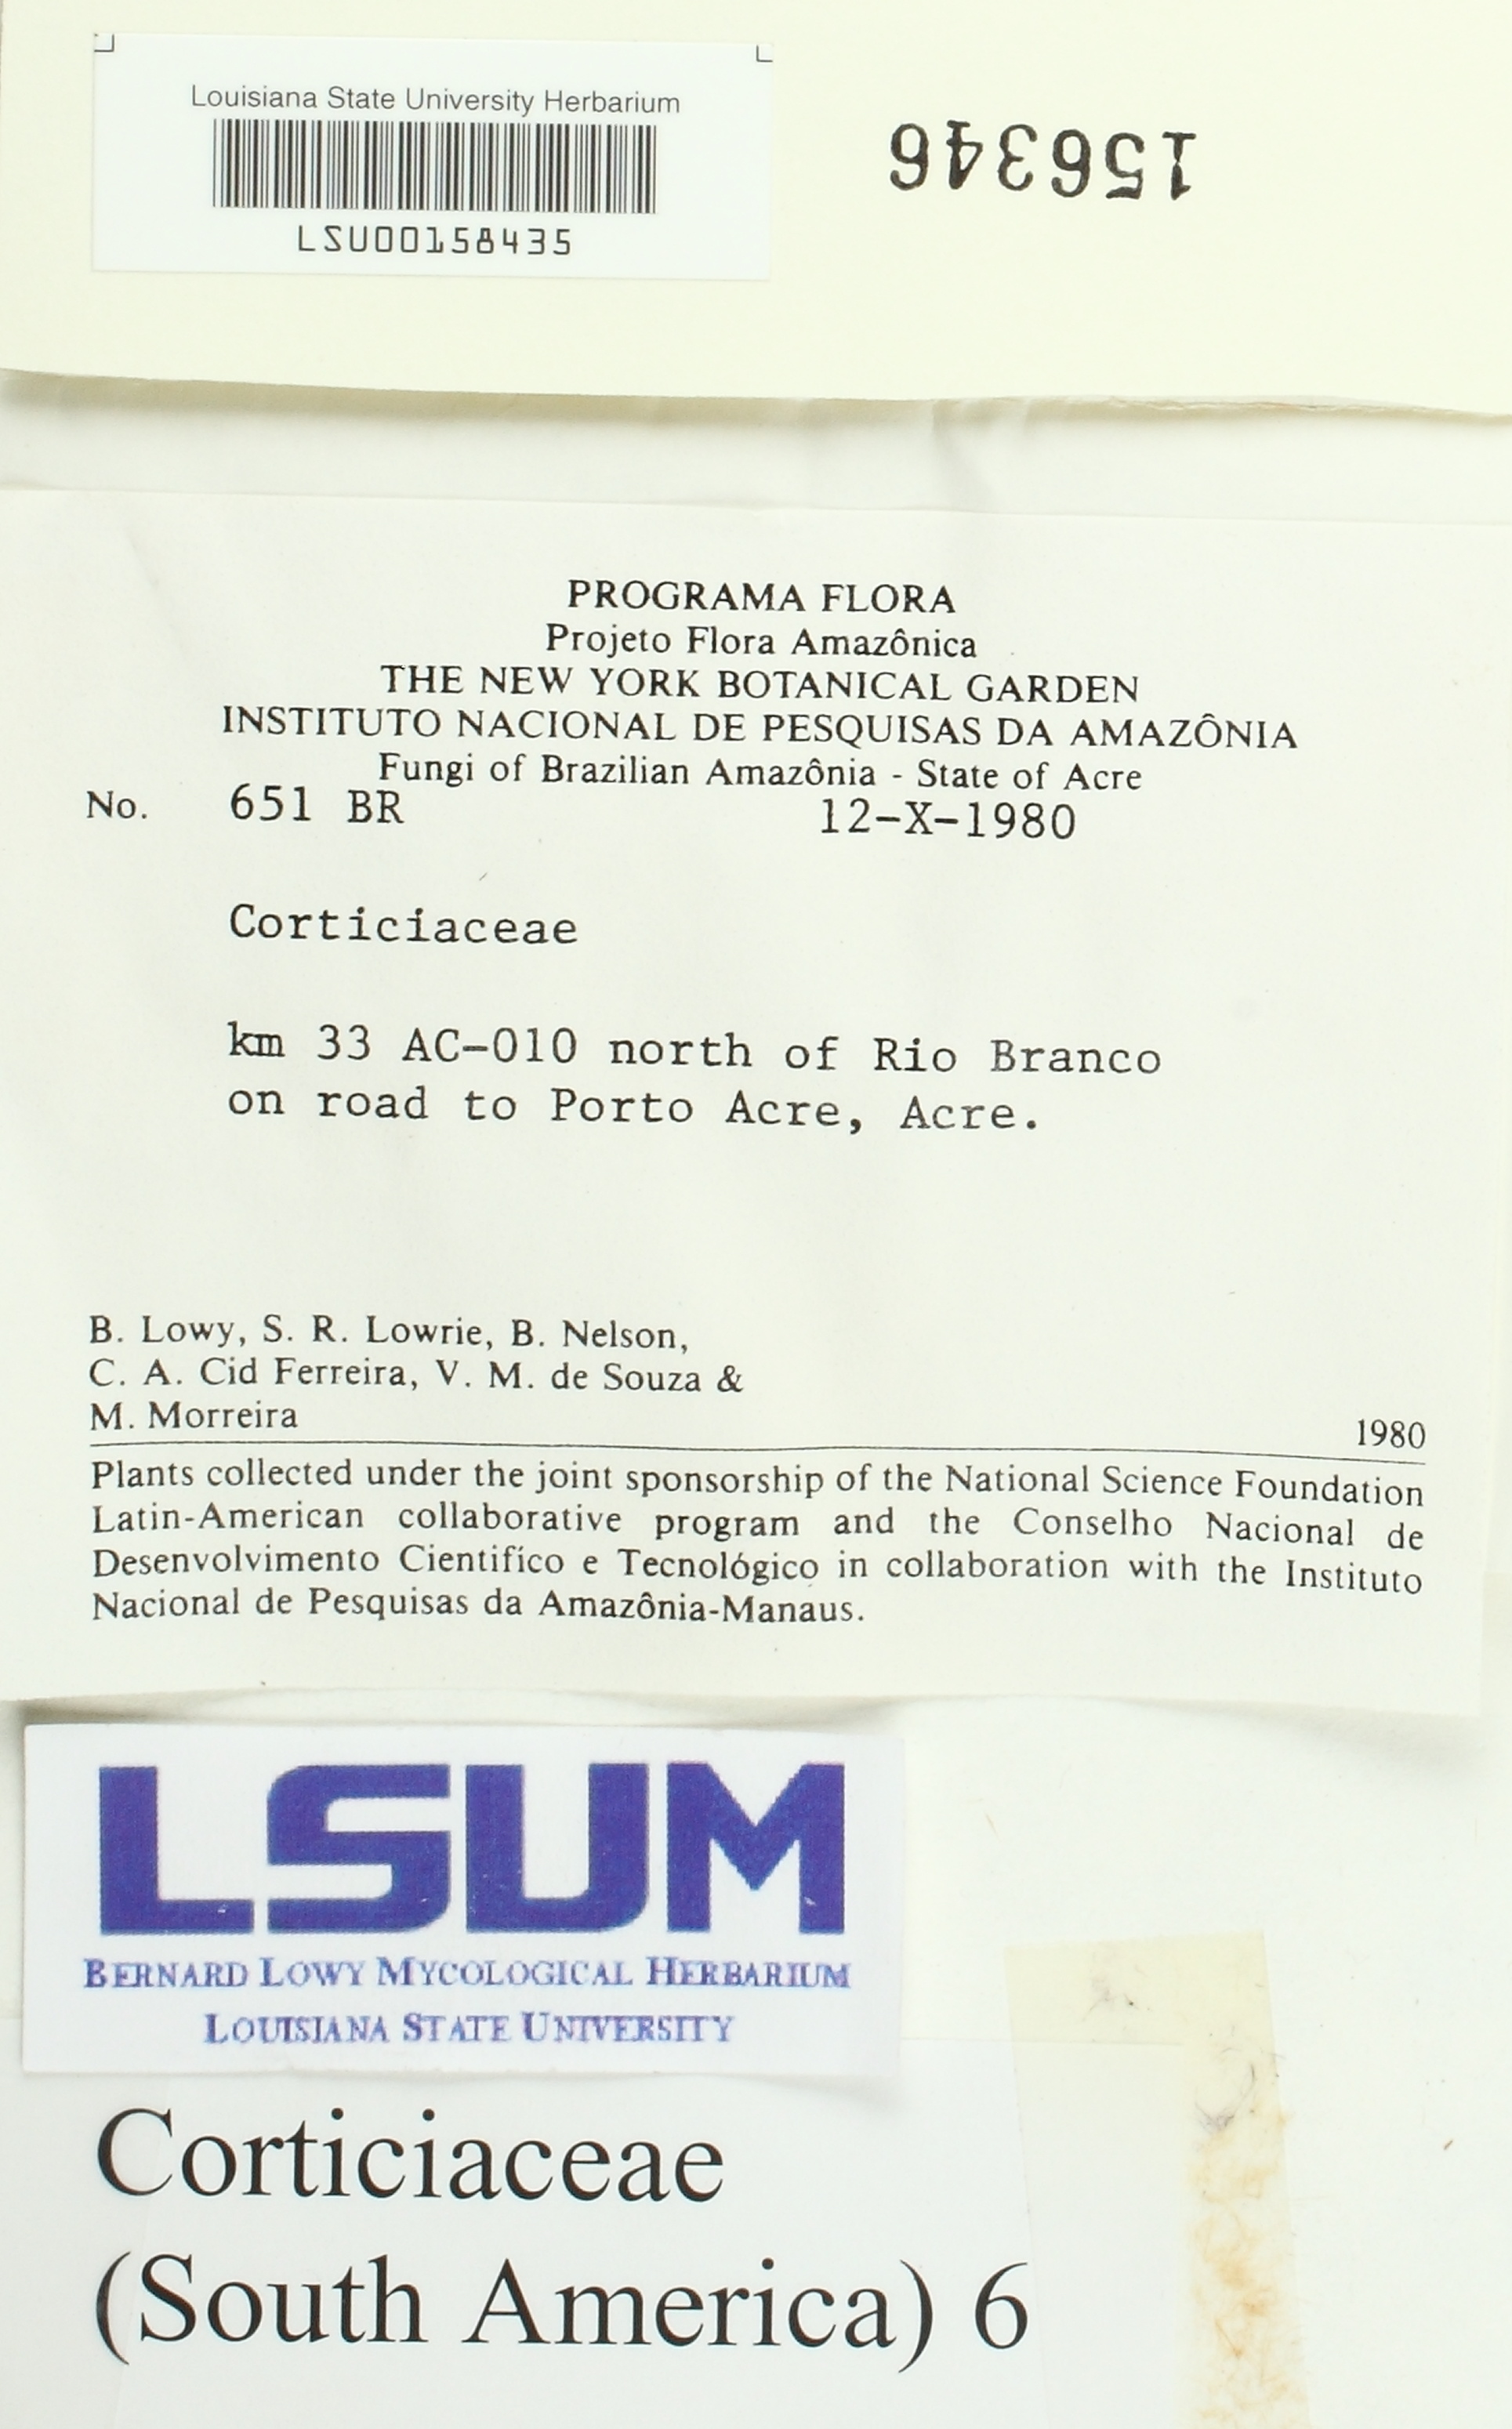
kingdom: Fungi
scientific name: Fungi
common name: Fungi
